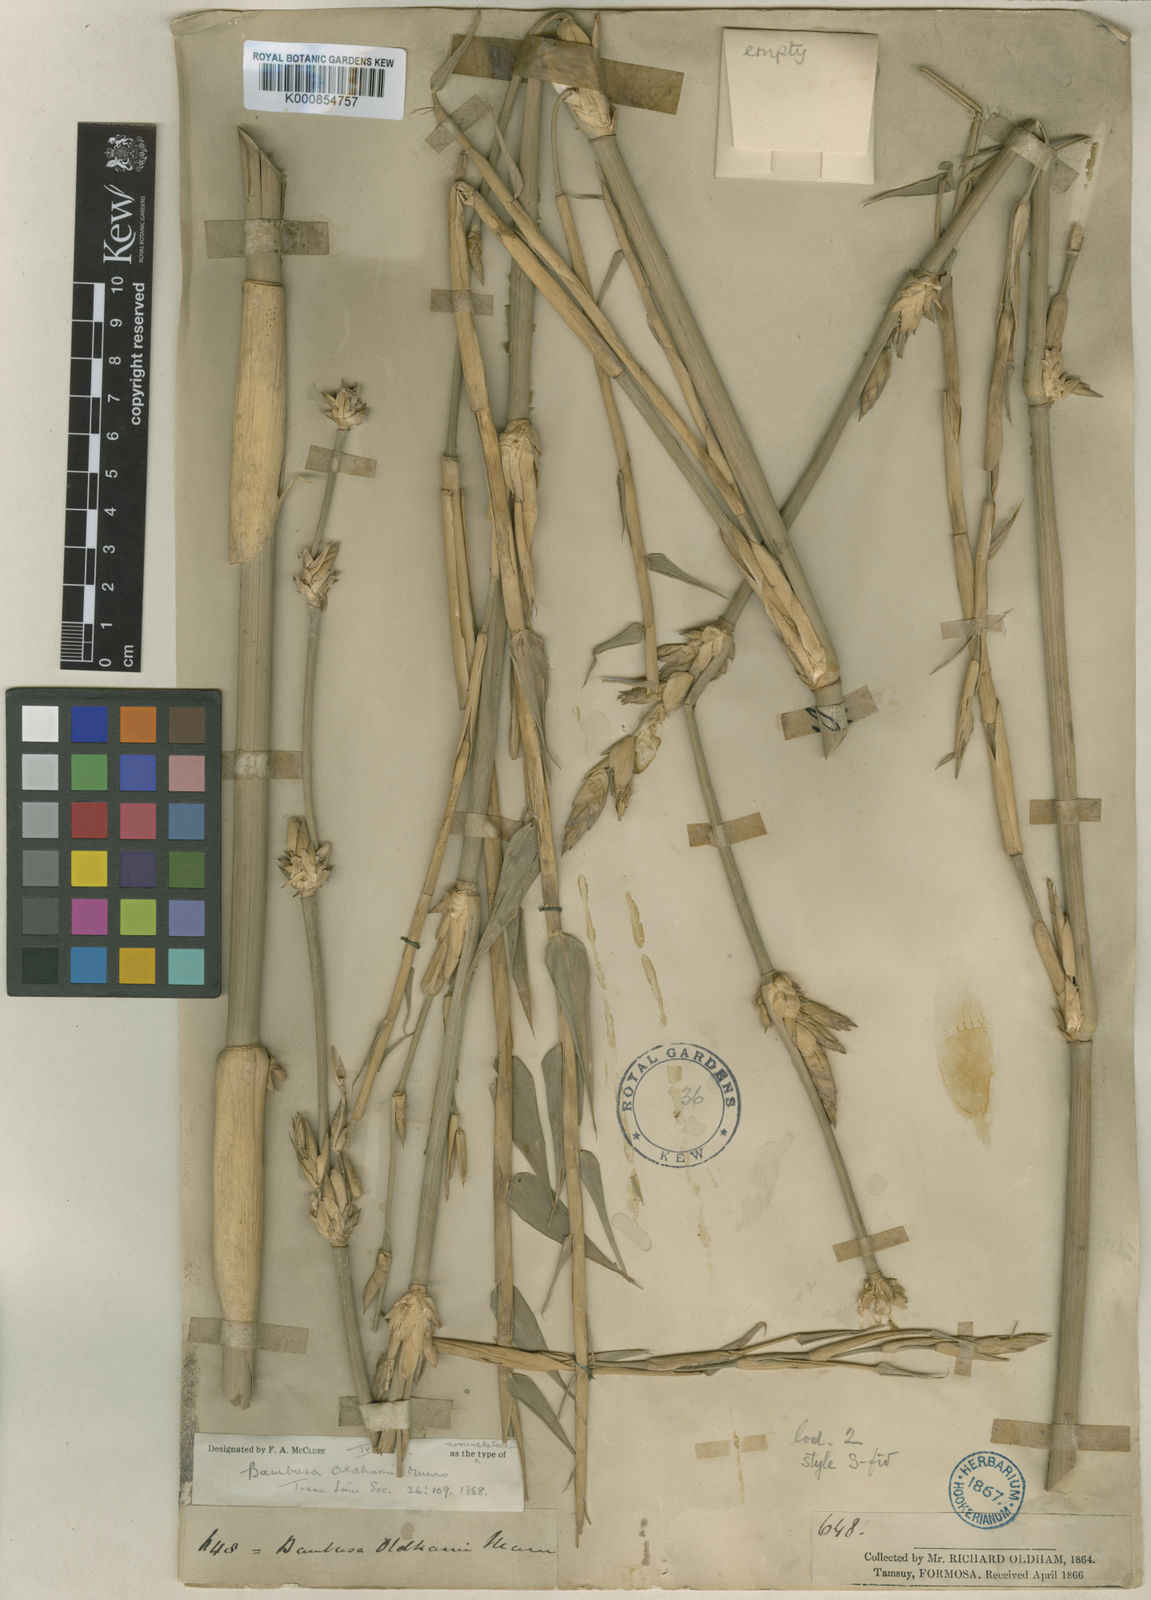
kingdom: Plantae
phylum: Tracheophyta
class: Liliopsida
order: Poales
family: Poaceae
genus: Bambusa
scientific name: Bambusa oldhamii
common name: Giant timber bamboo
